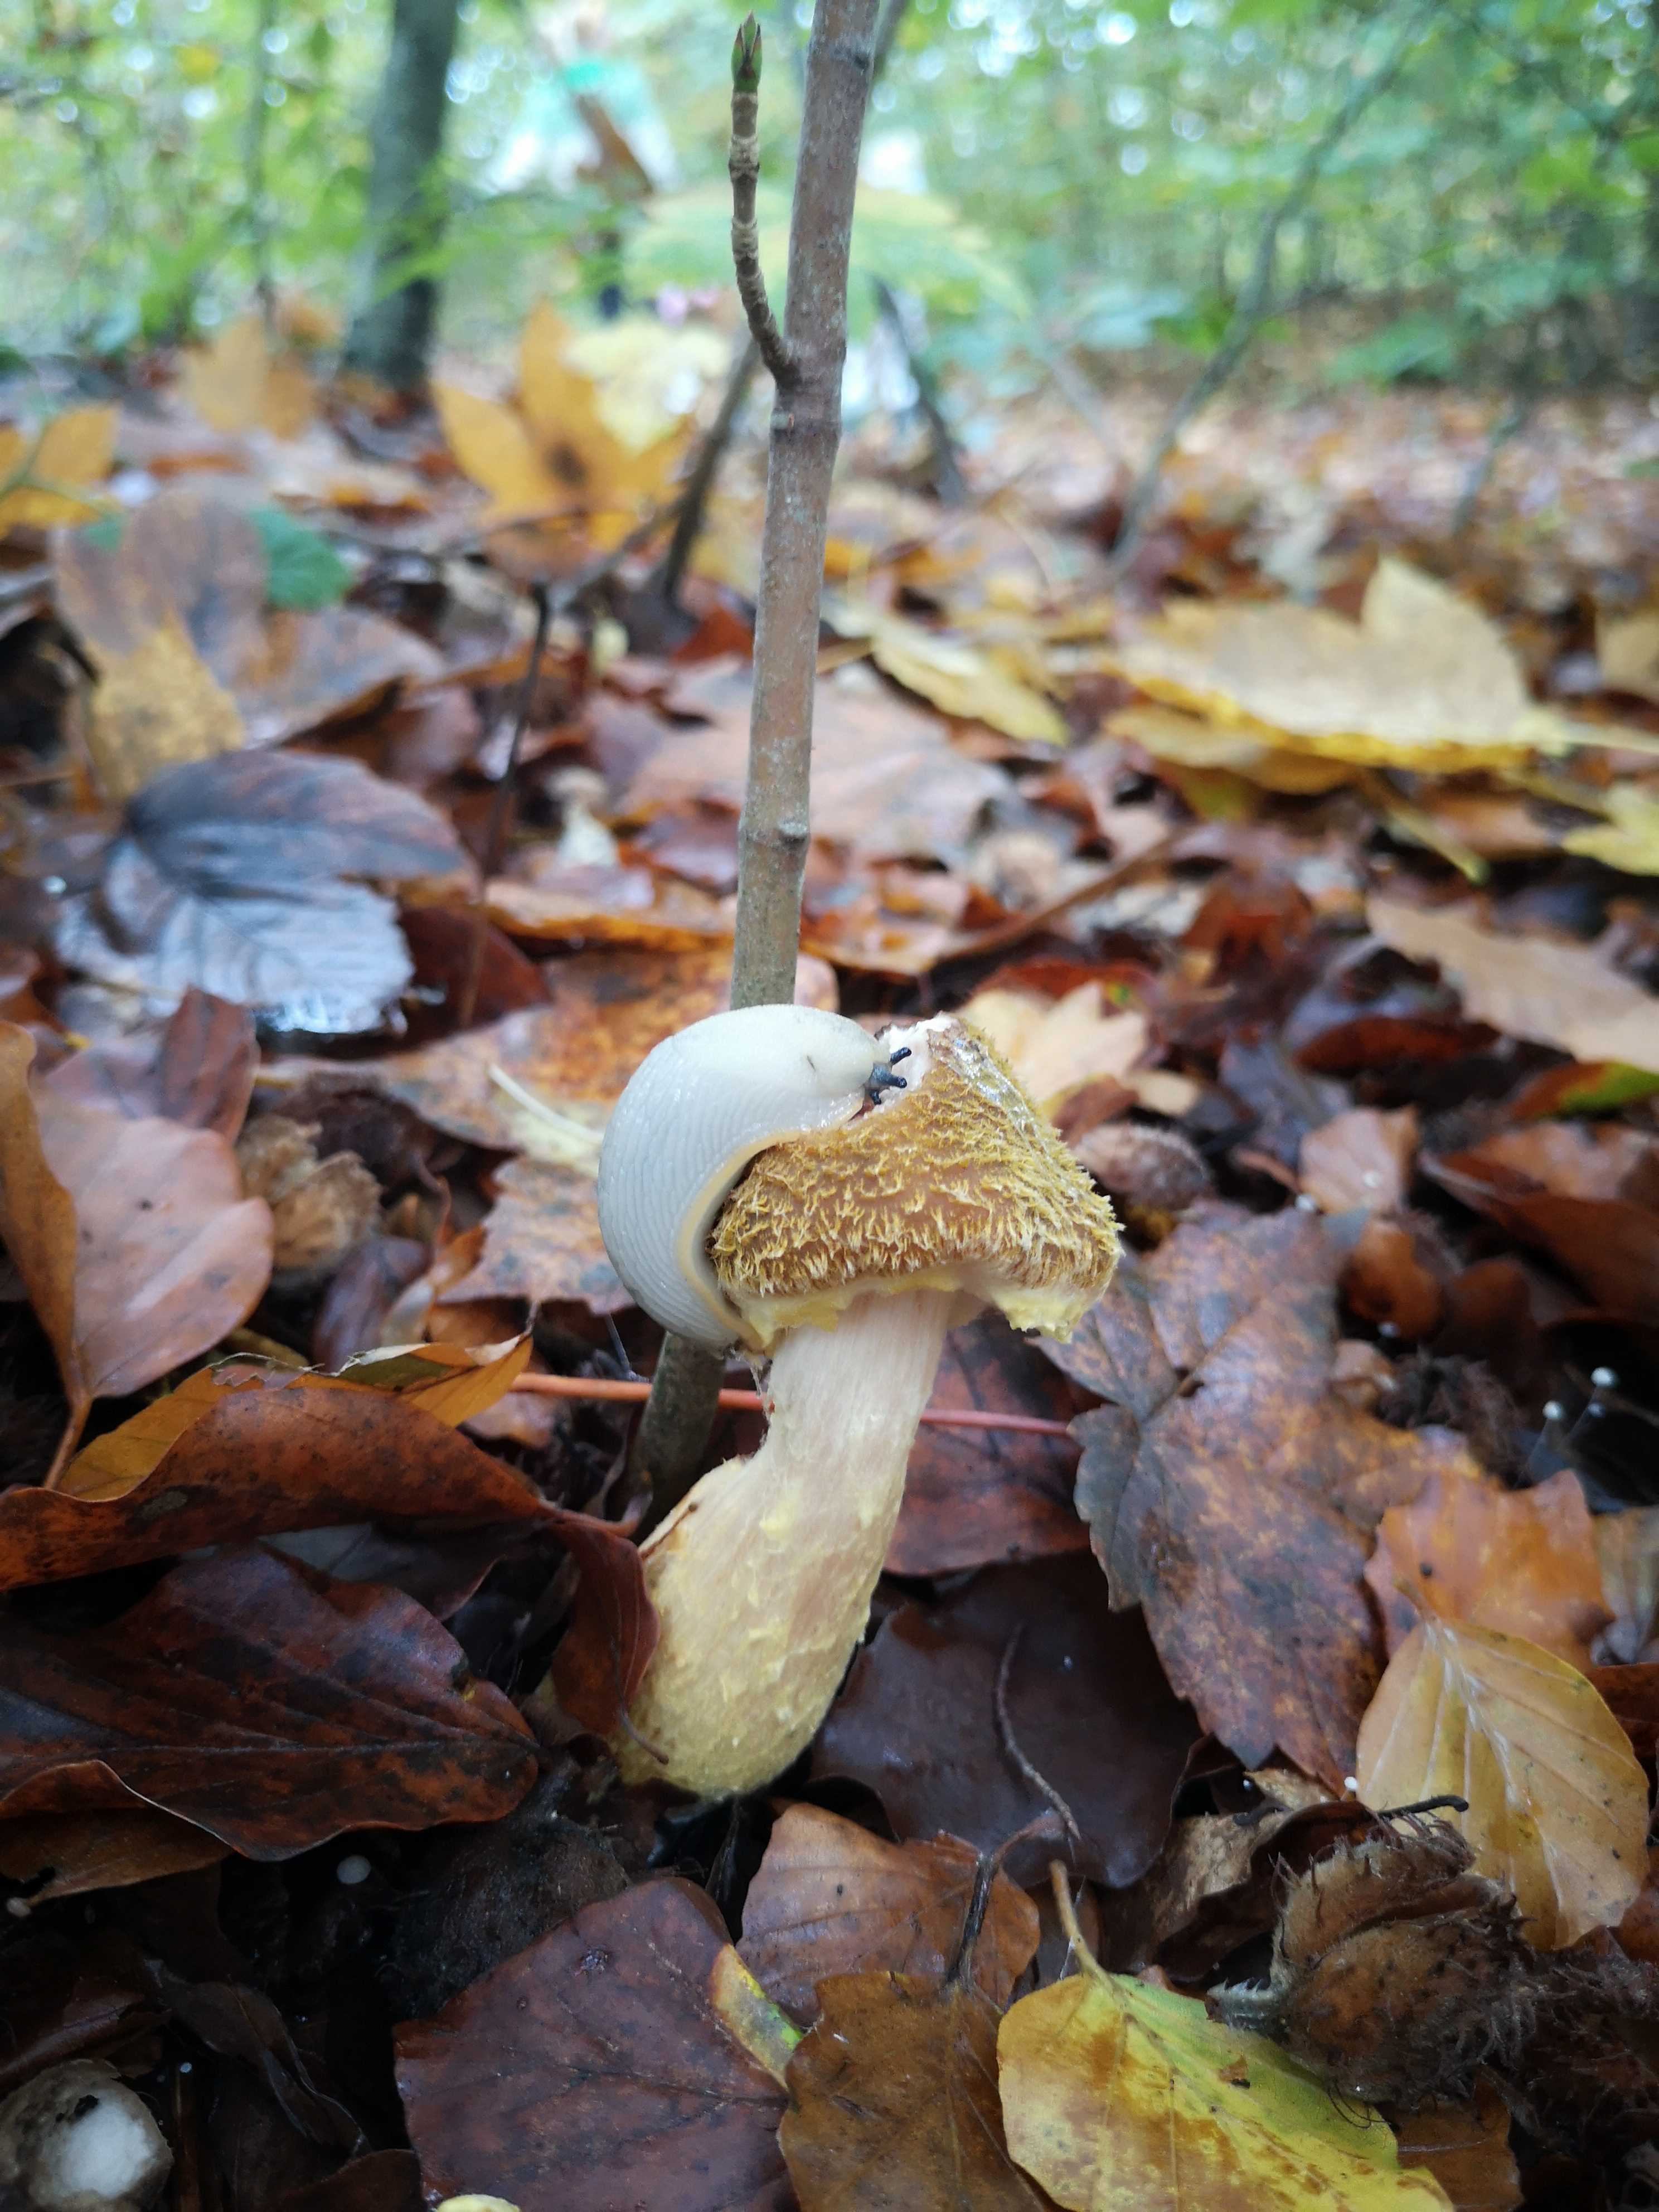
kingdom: Fungi
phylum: Basidiomycota
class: Agaricomycetes
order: Agaricales
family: Physalacriaceae
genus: Armillaria
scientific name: Armillaria lutea
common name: køllestokket honningsvamp
